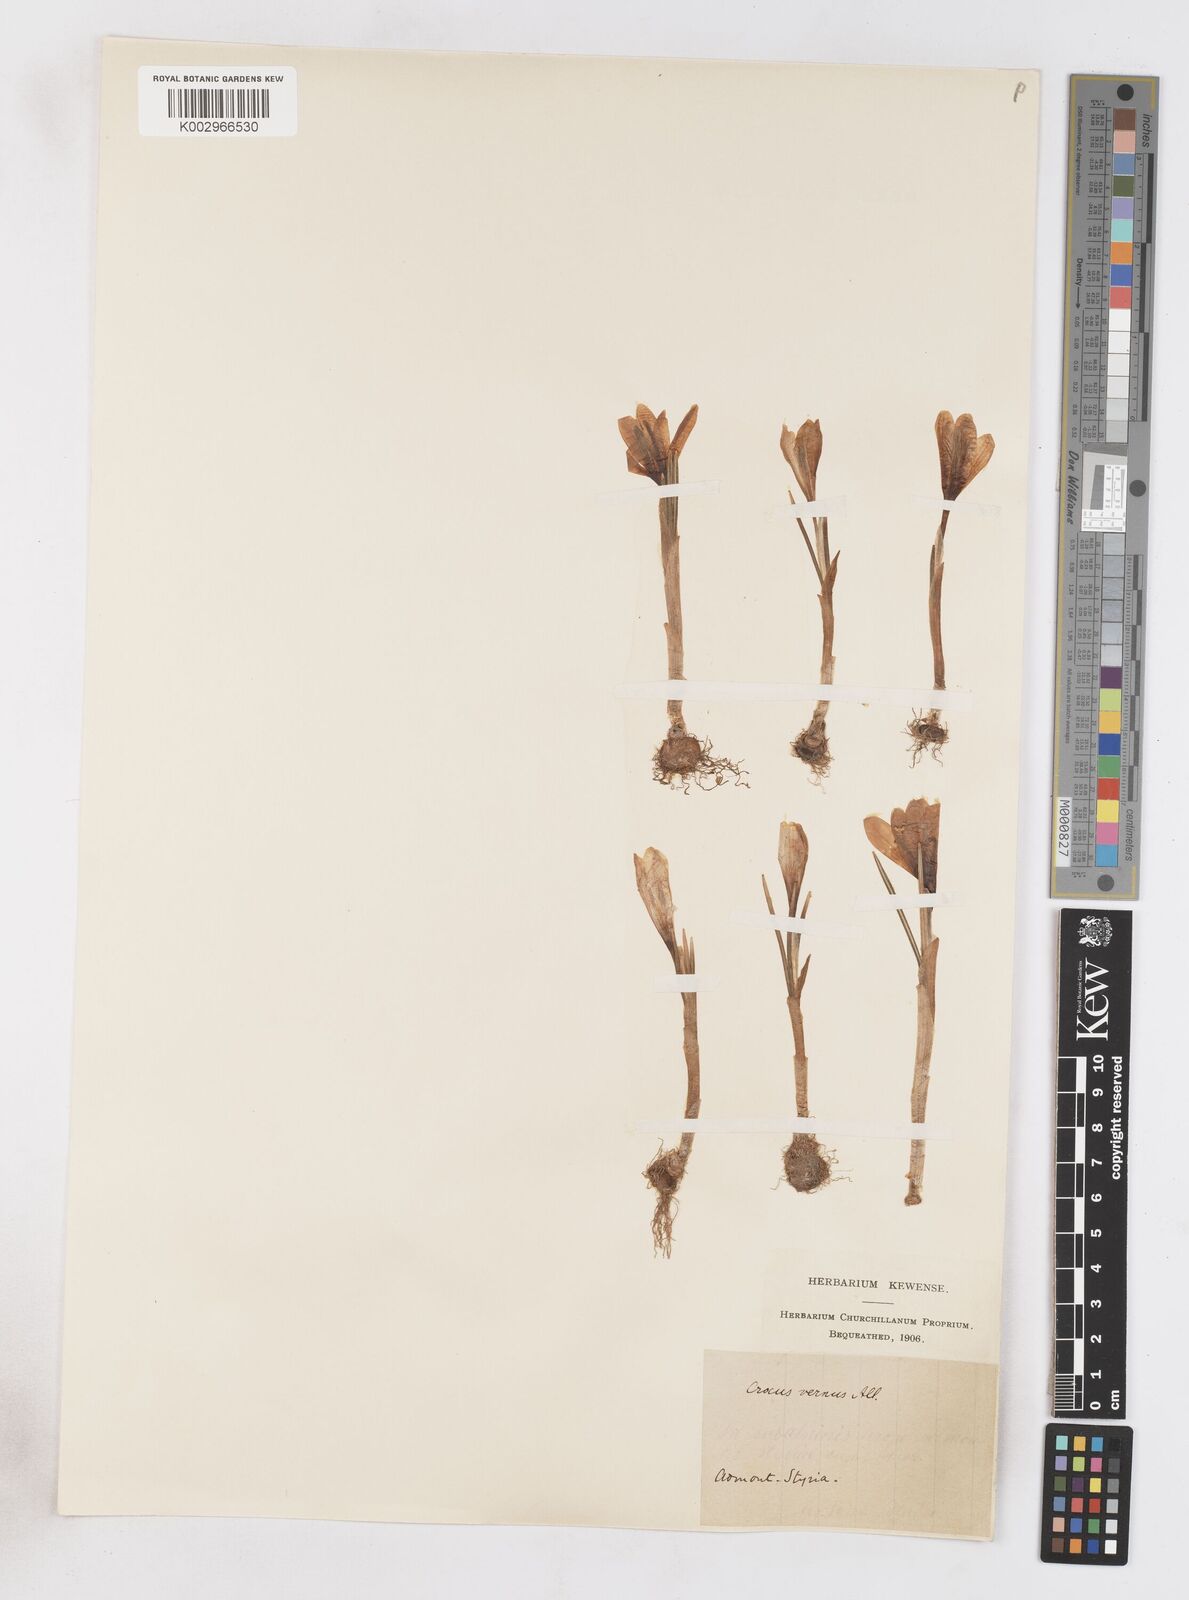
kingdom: Plantae
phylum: Tracheophyta
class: Liliopsida
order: Asparagales
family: Iridaceae
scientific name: Iridaceae
